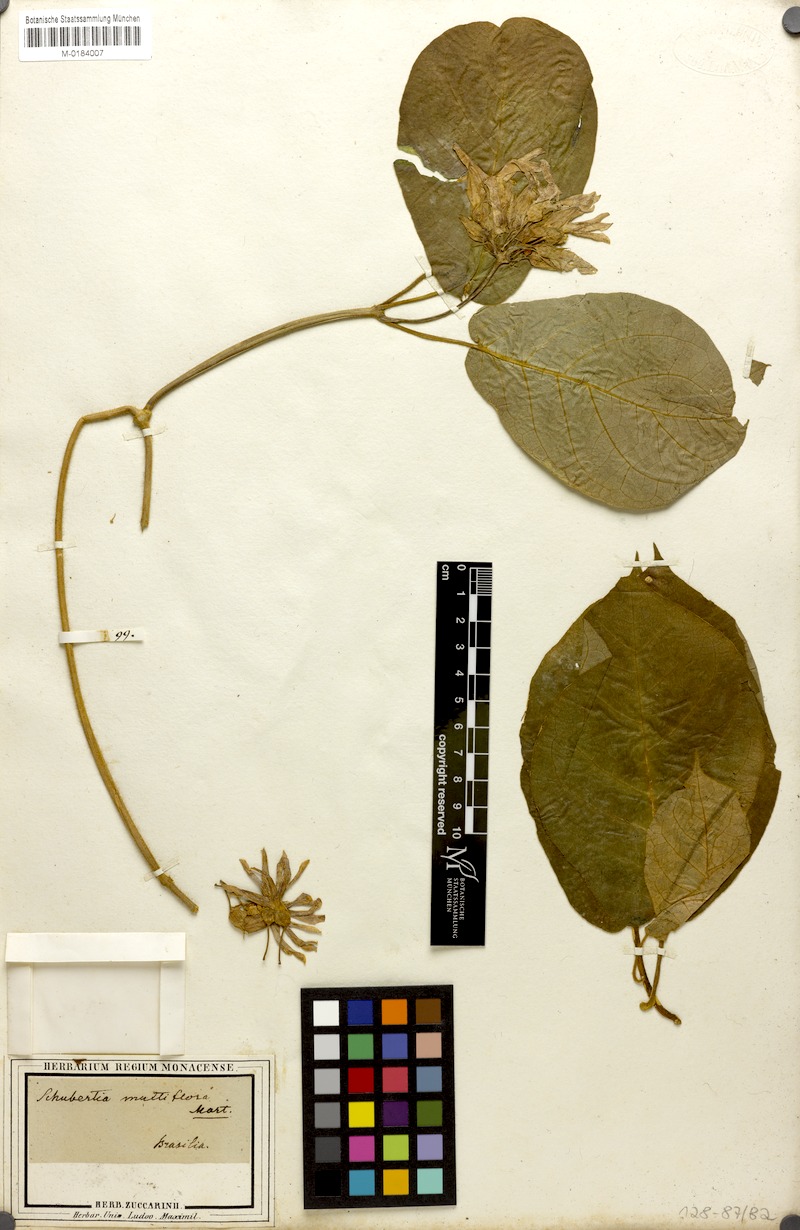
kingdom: Plantae
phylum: Tracheophyta
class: Magnoliopsida
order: Gentianales
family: Apocynaceae
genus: Schubertia
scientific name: Schubertia multiflora
